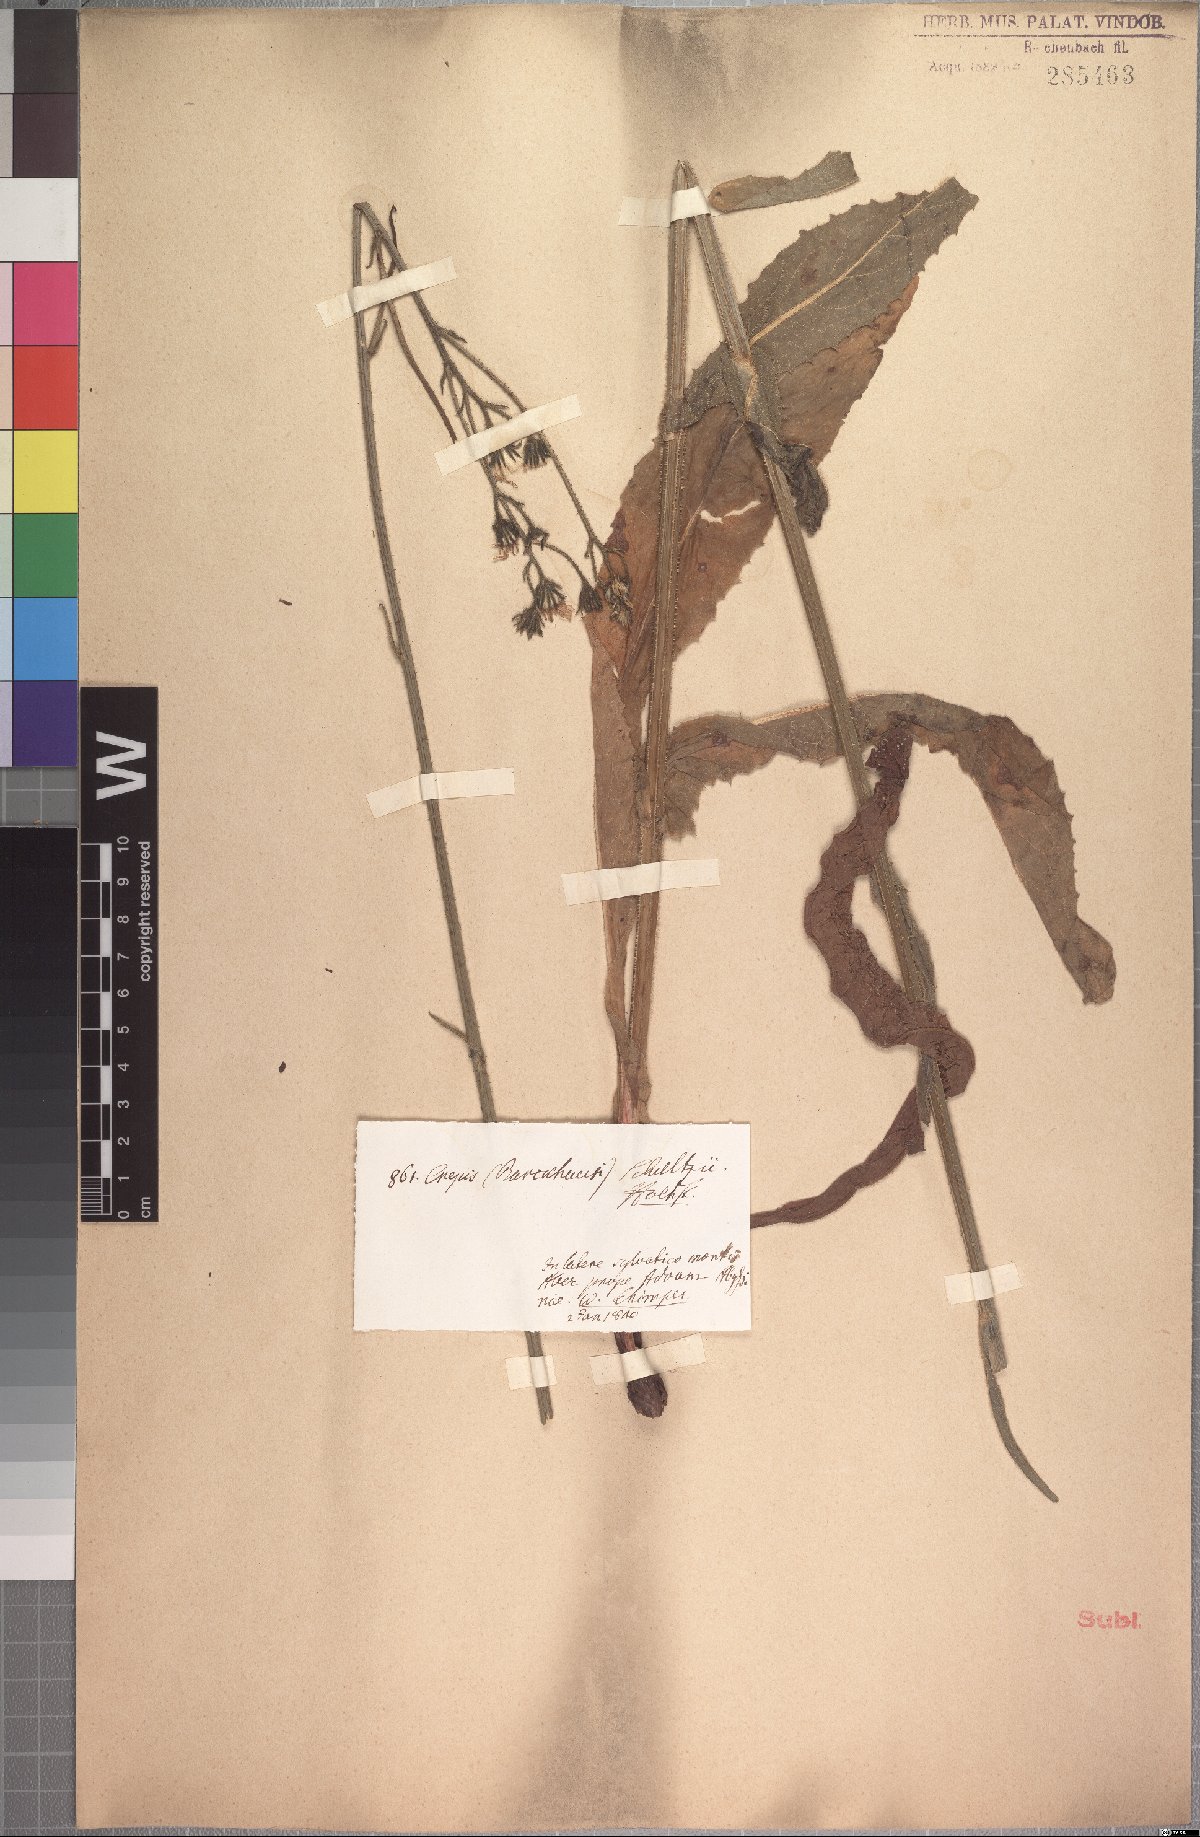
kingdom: Plantae
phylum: Tracheophyta
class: Magnoliopsida
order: Asterales
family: Asteraceae
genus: Crepis
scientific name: Crepis schultzii
